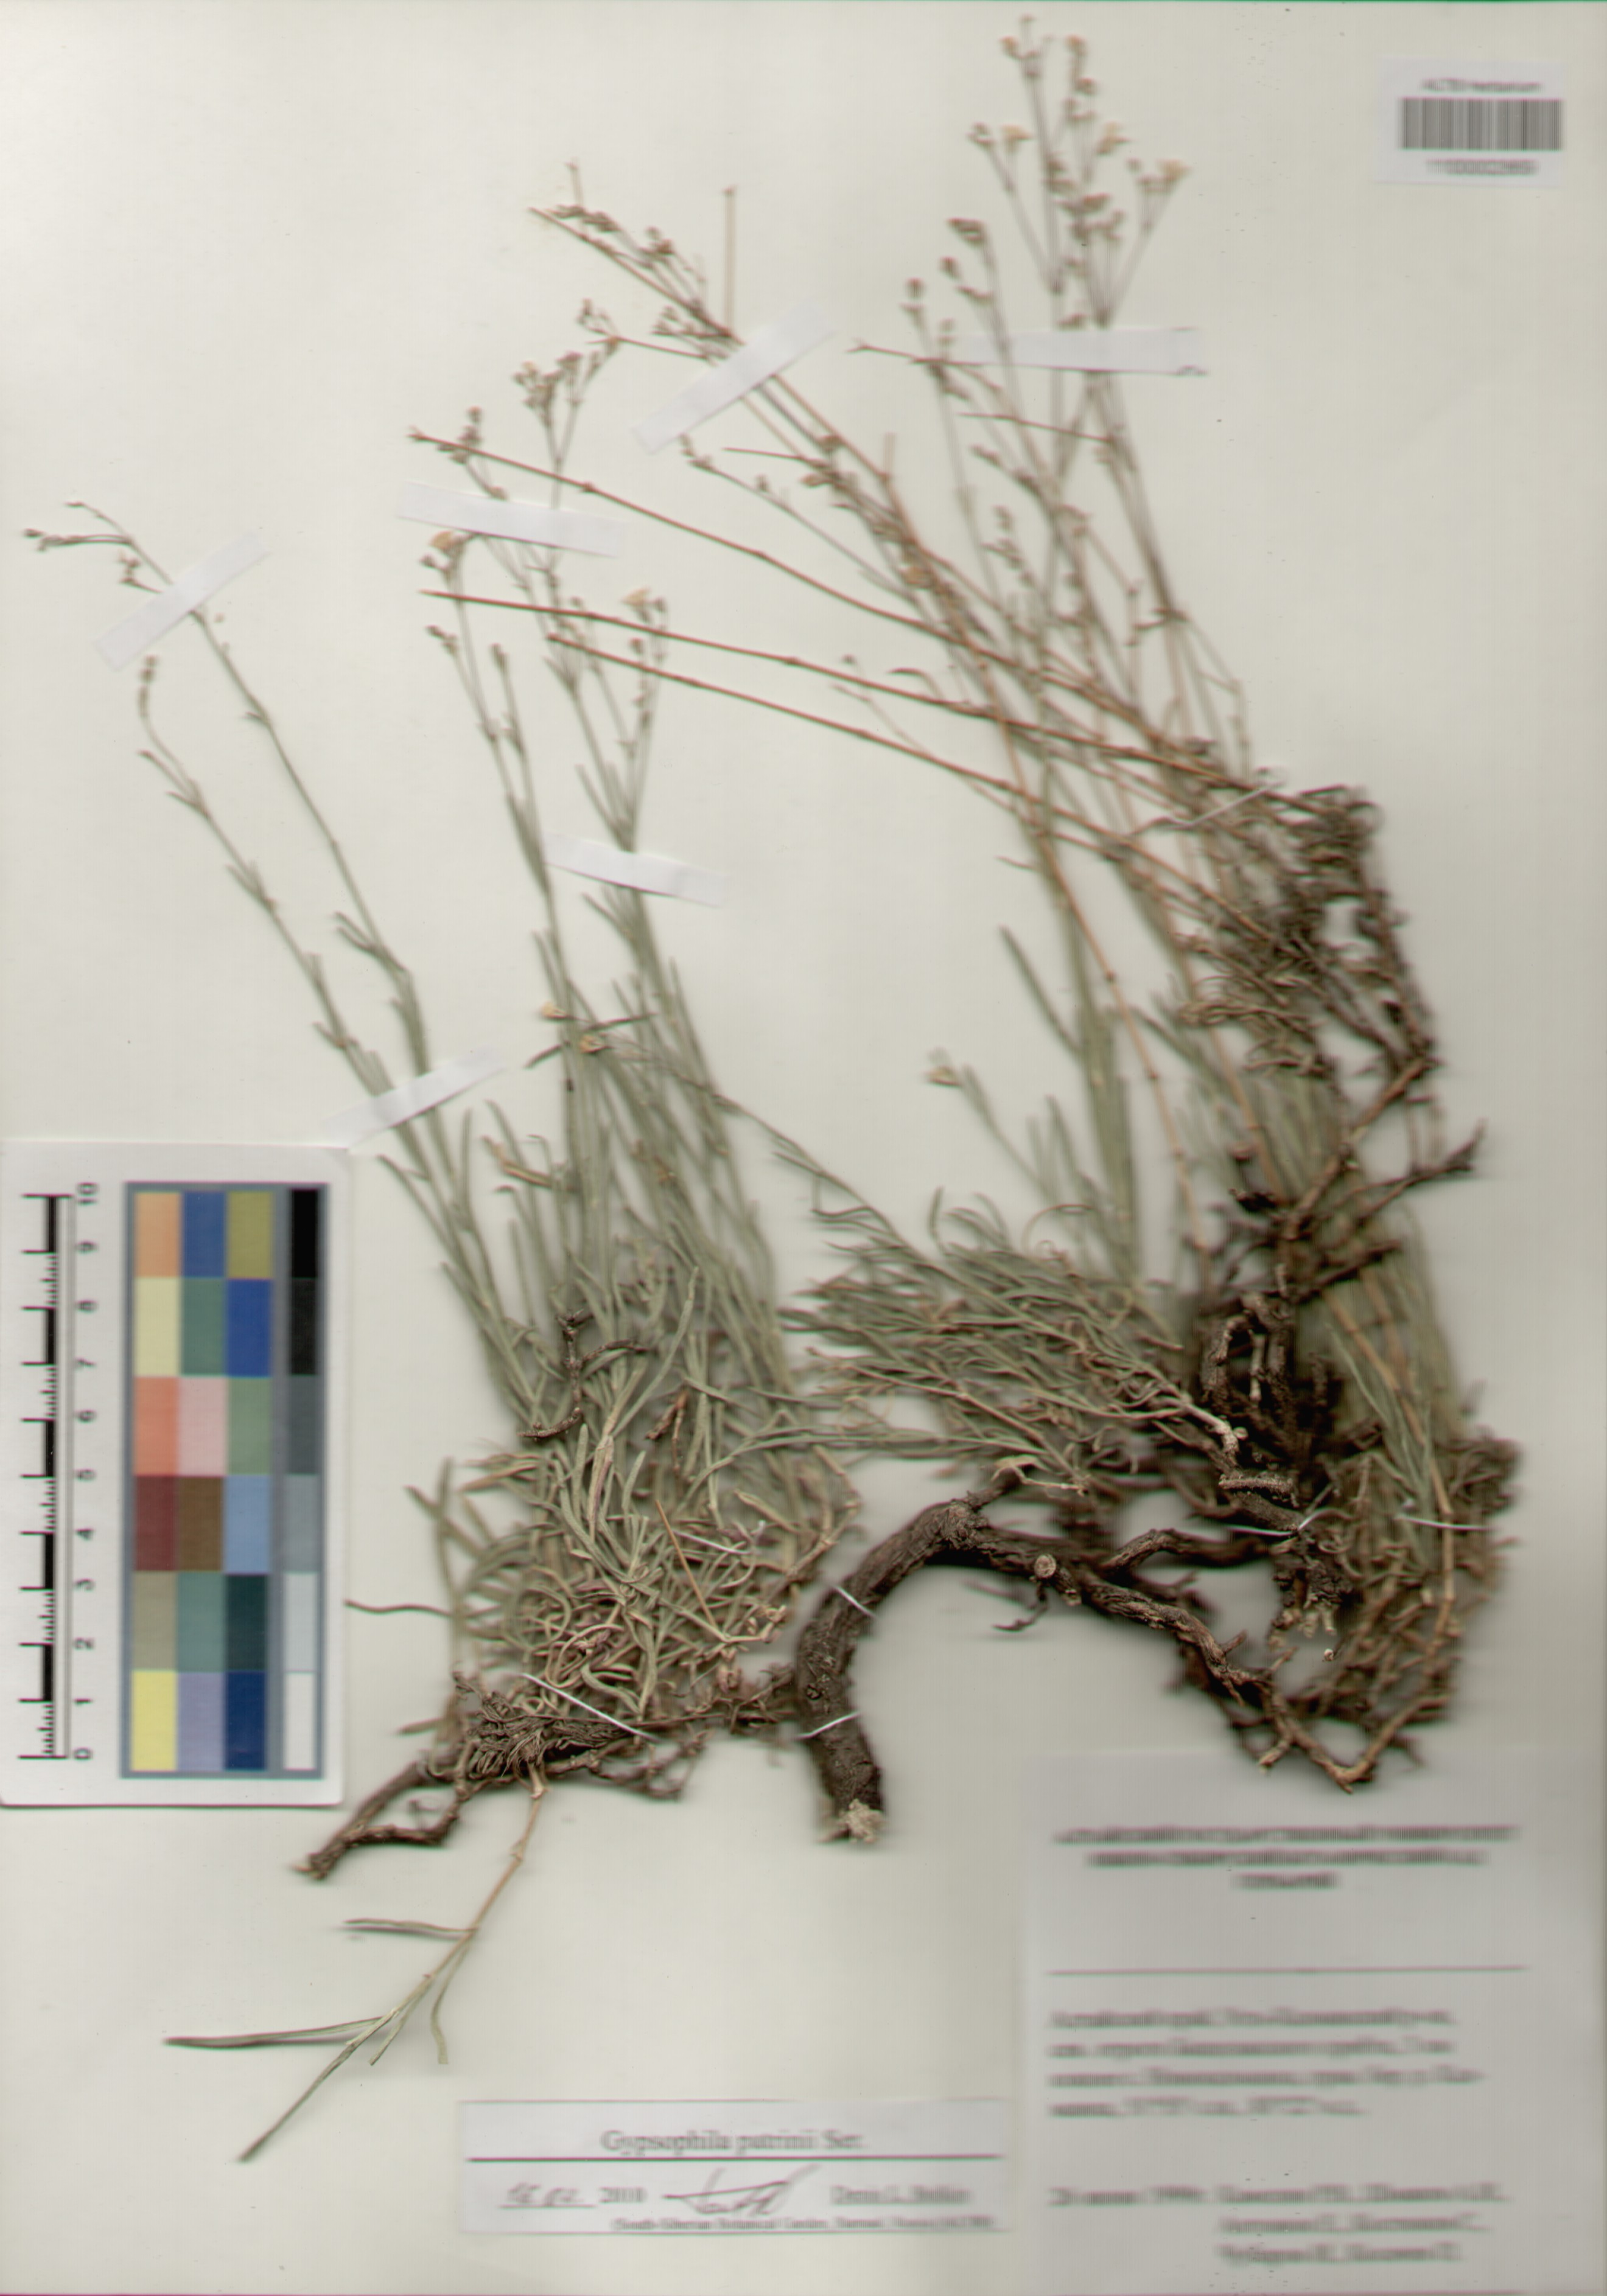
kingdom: Plantae
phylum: Tracheophyta
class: Magnoliopsida
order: Caryophyllales
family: Caryophyllaceae
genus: Gypsophila
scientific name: Gypsophila patrinii
